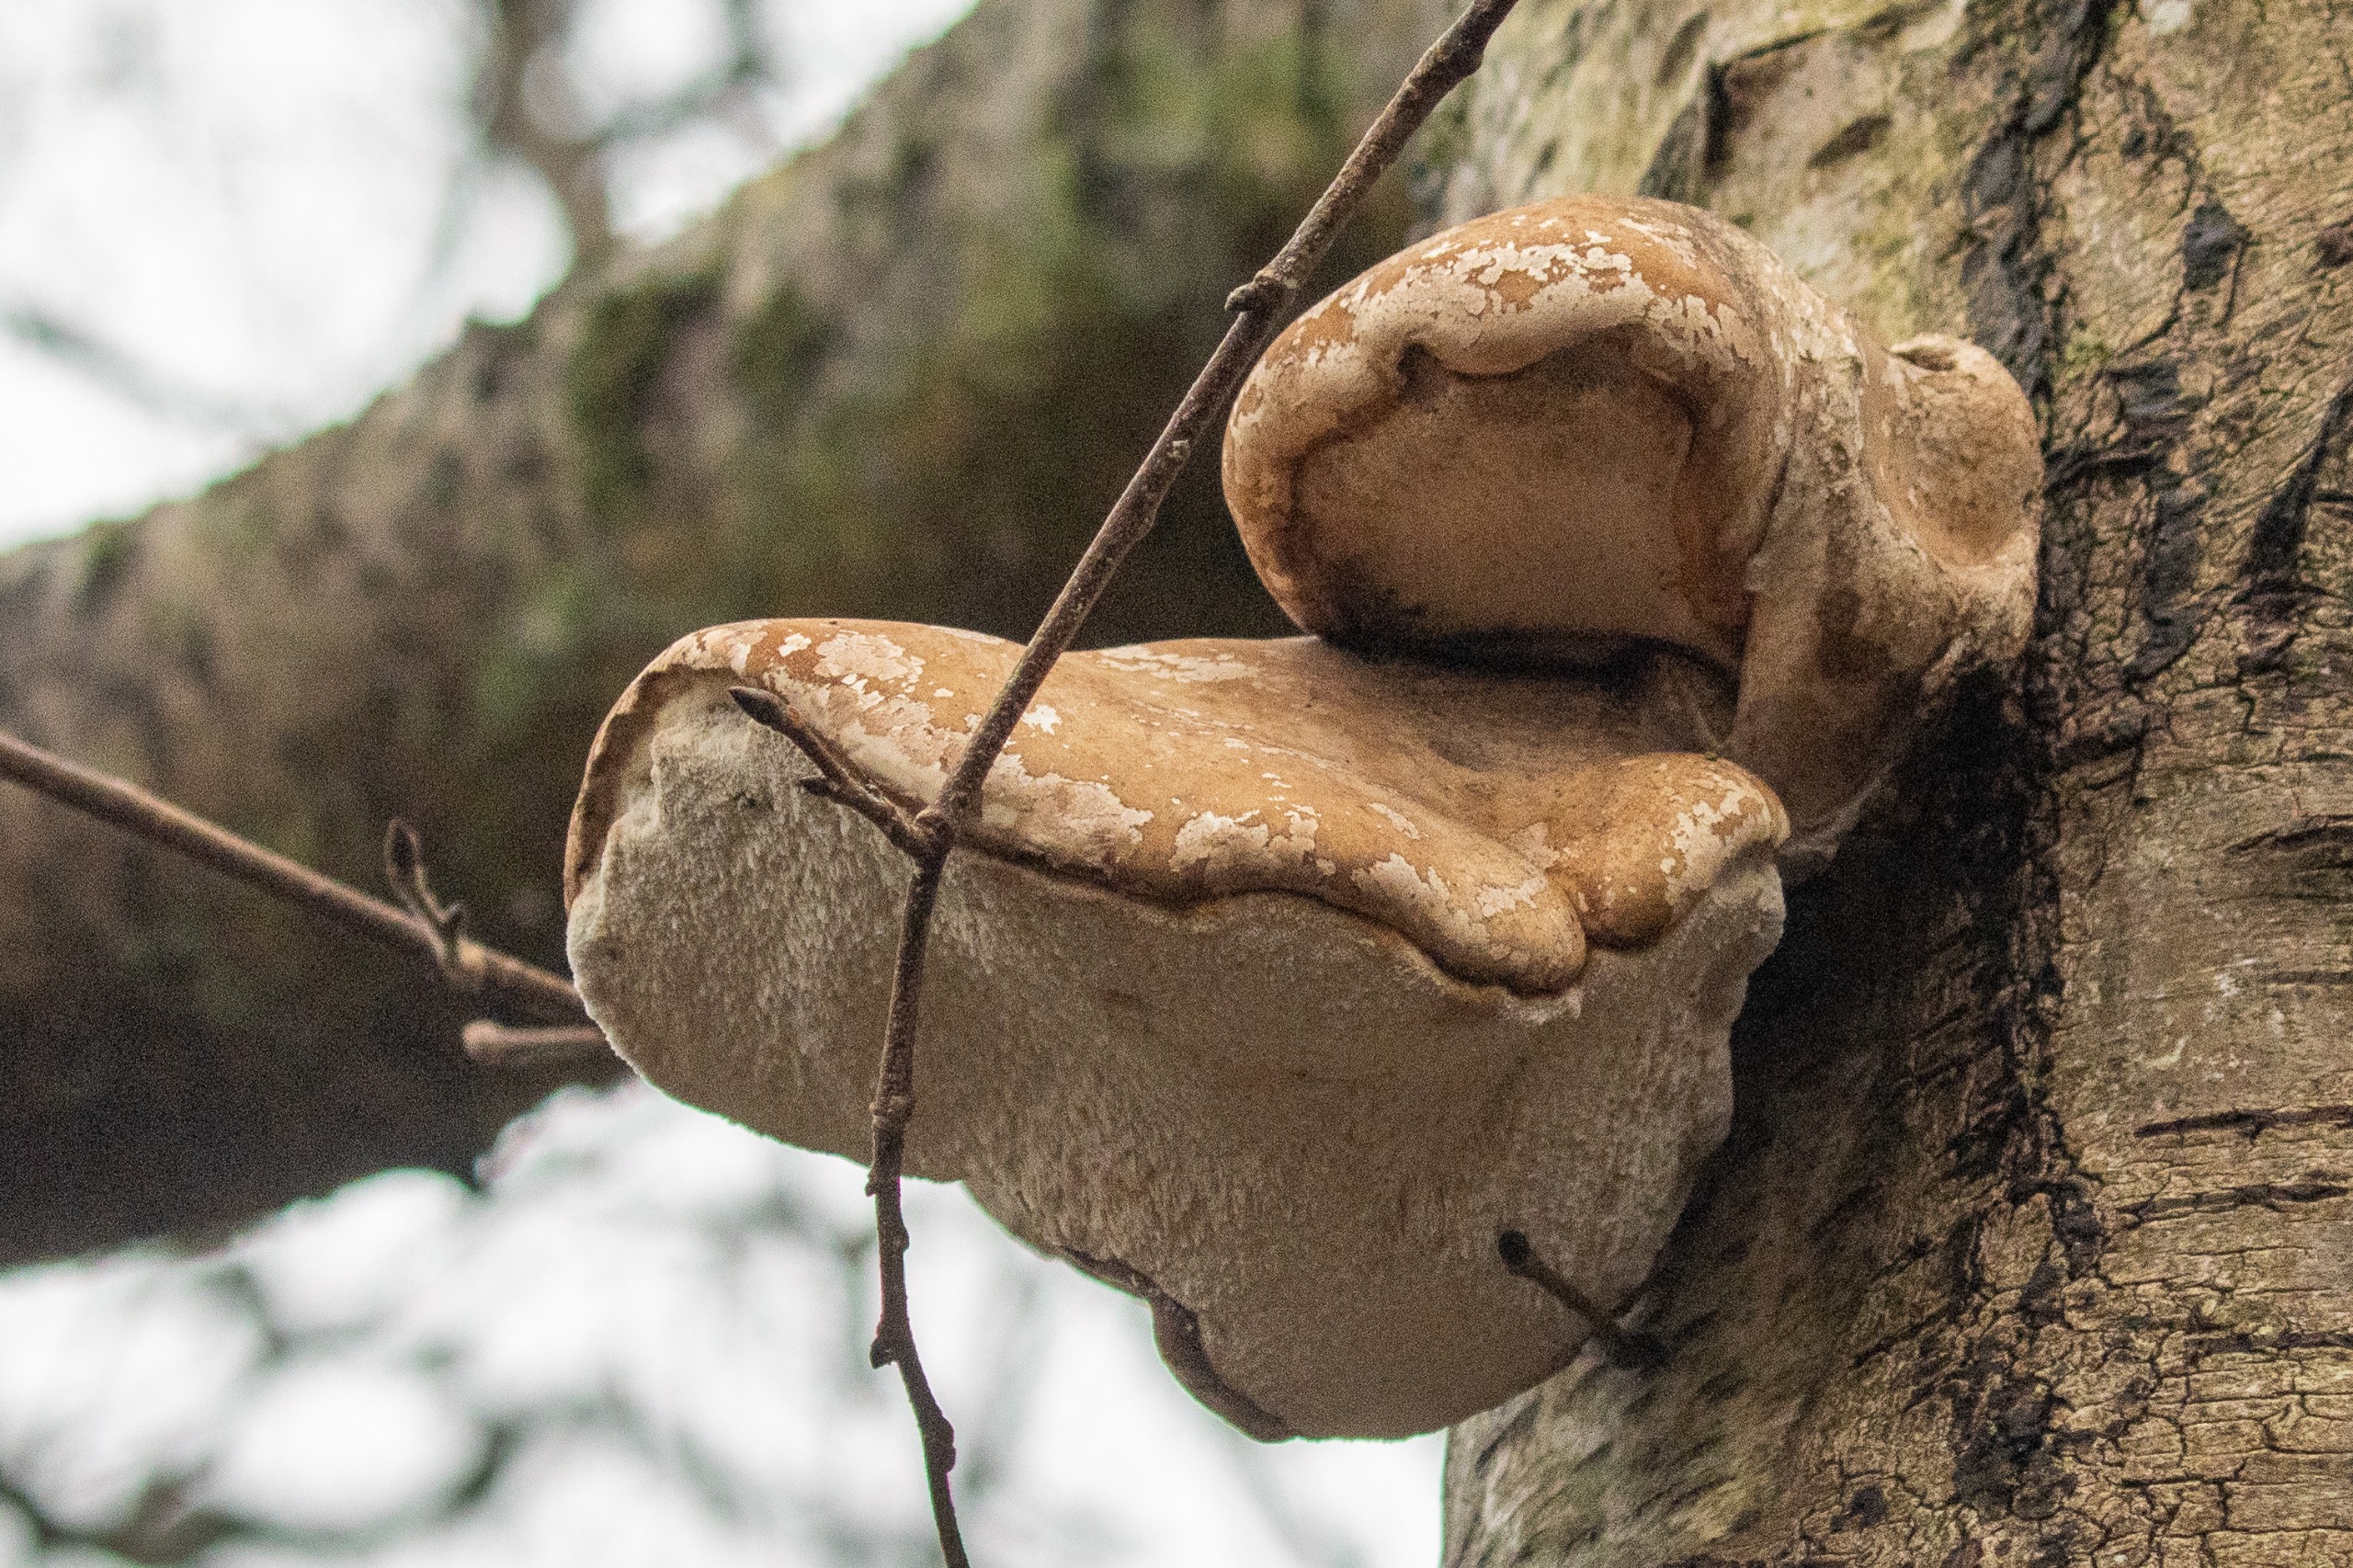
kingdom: Fungi
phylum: Basidiomycota
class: Agaricomycetes
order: Polyporales
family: Fomitopsidaceae
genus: Fomitopsis
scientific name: Fomitopsis betulina
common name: Birkeporesvamp
